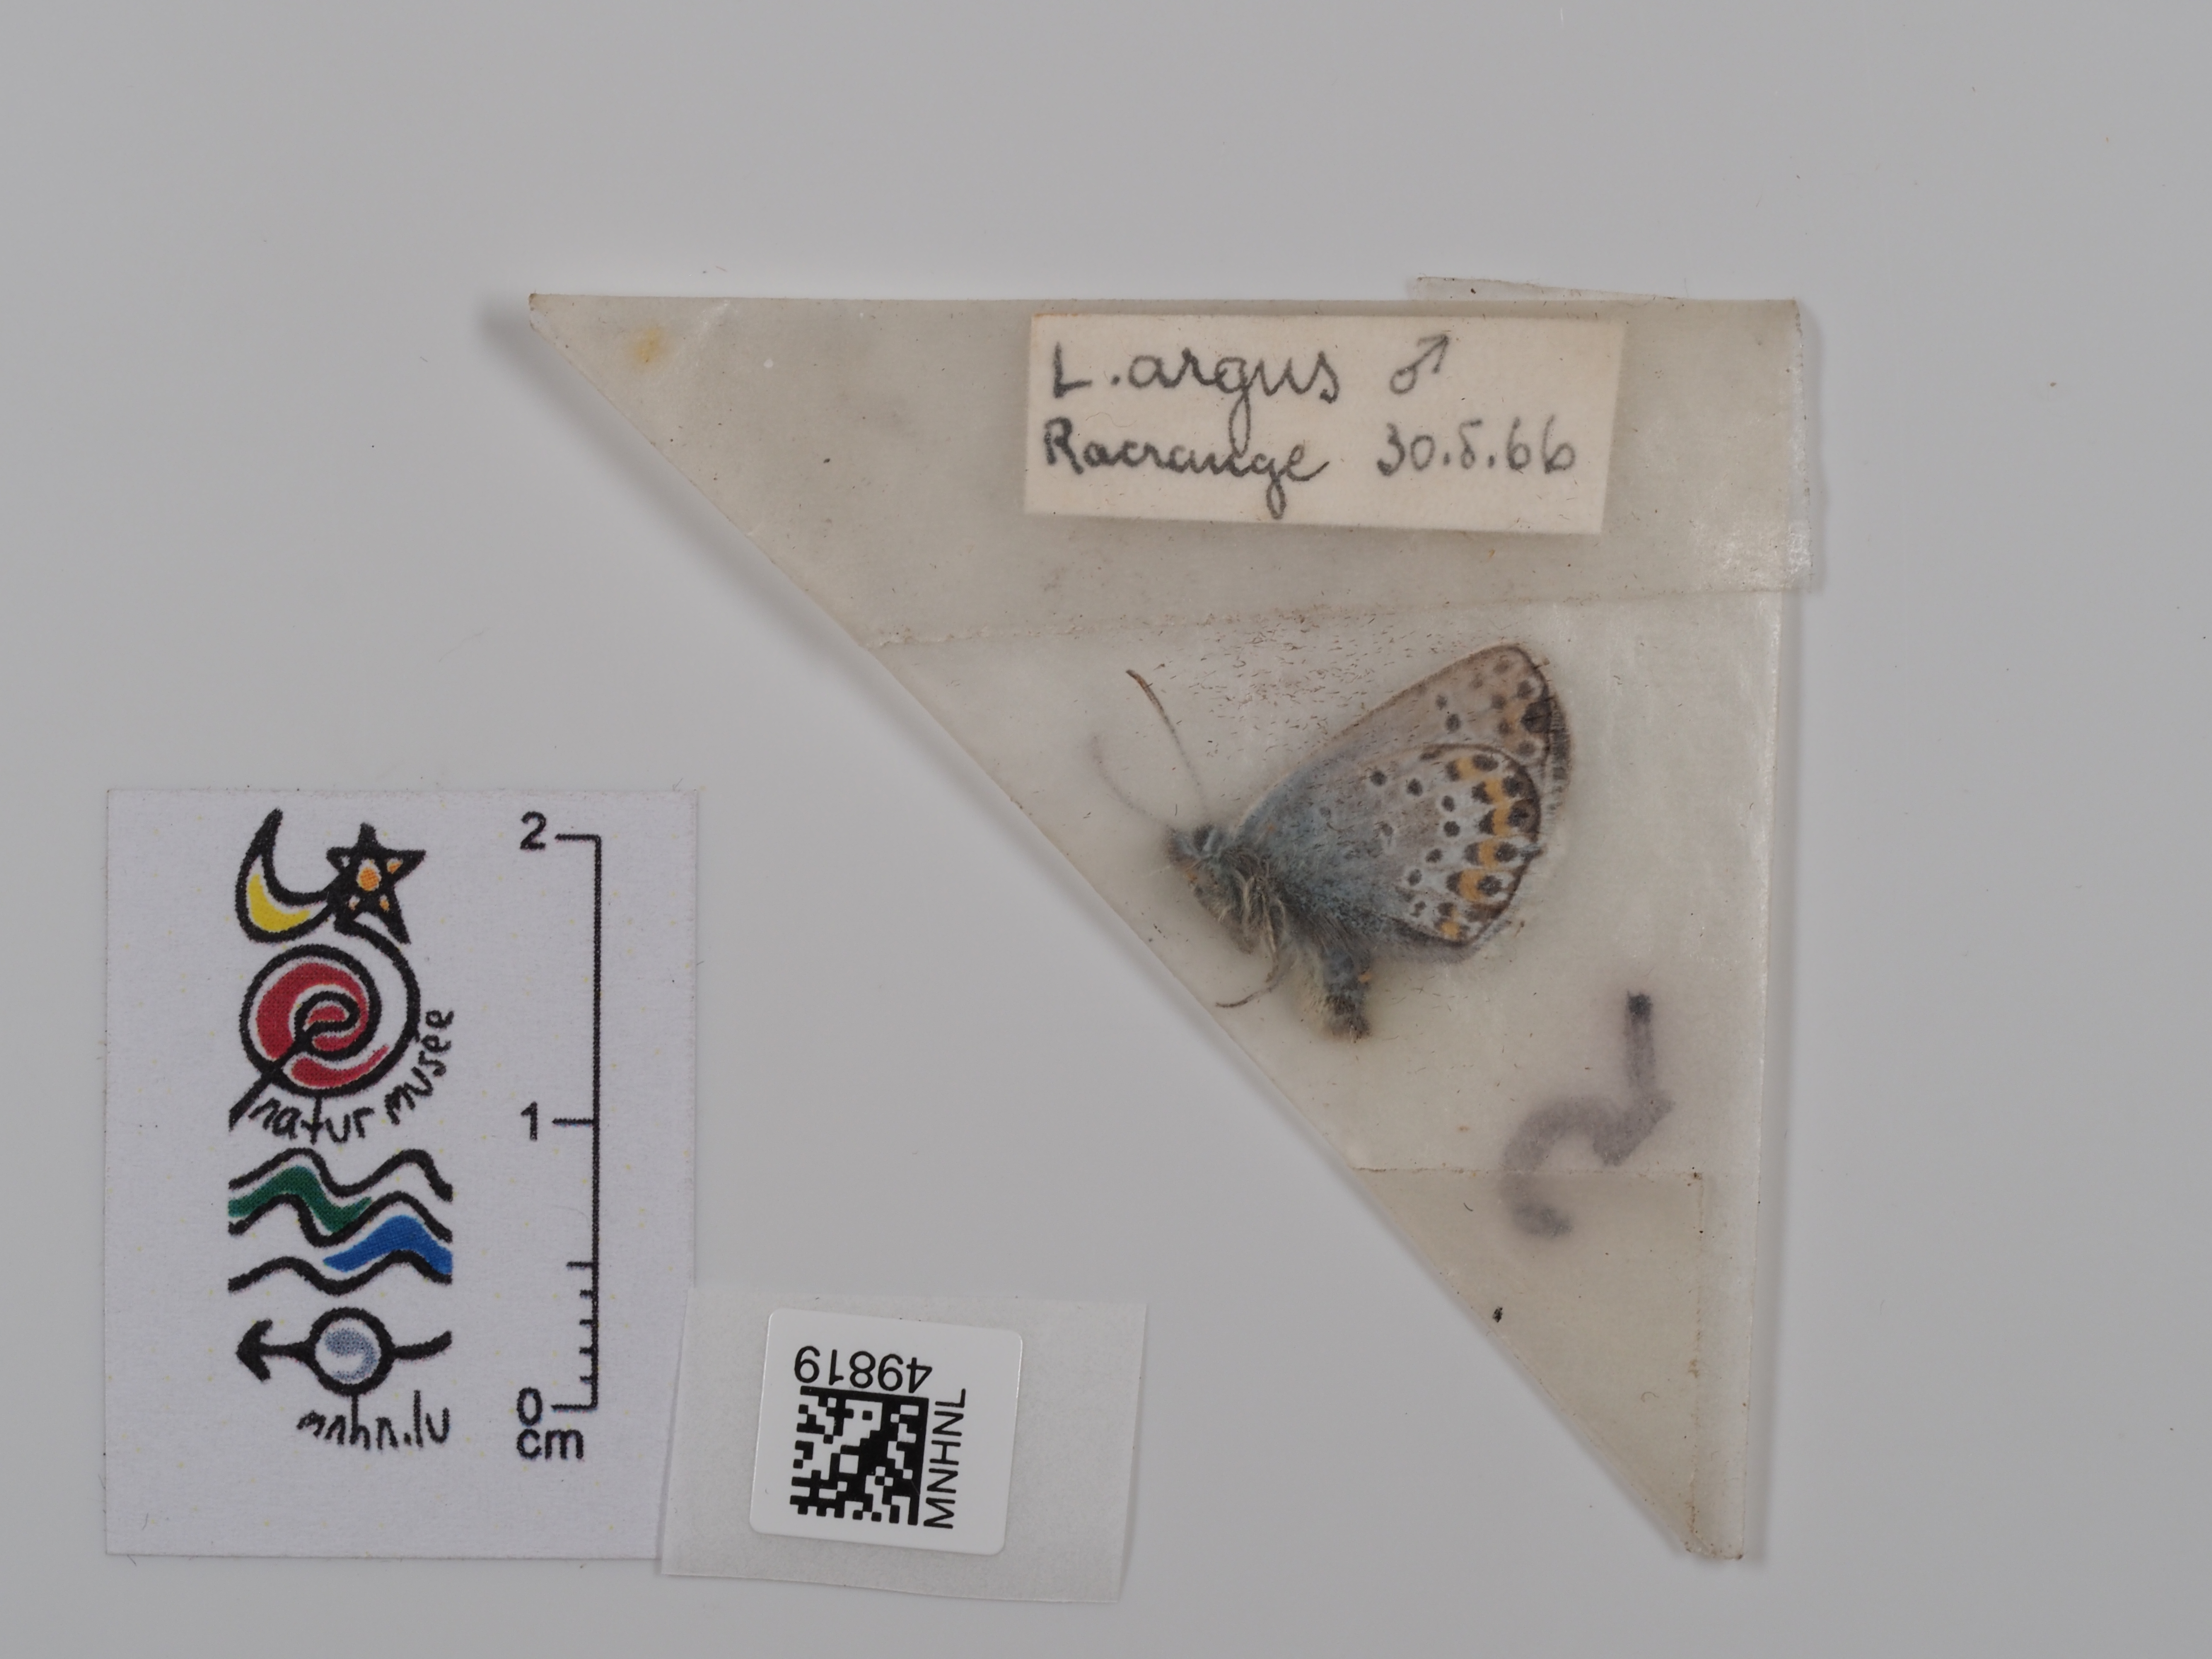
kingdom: Animalia
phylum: Arthropoda
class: Insecta
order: Lepidoptera
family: Lycaenidae
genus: Lycaeides
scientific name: Lycaeides idas
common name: Northern blue
